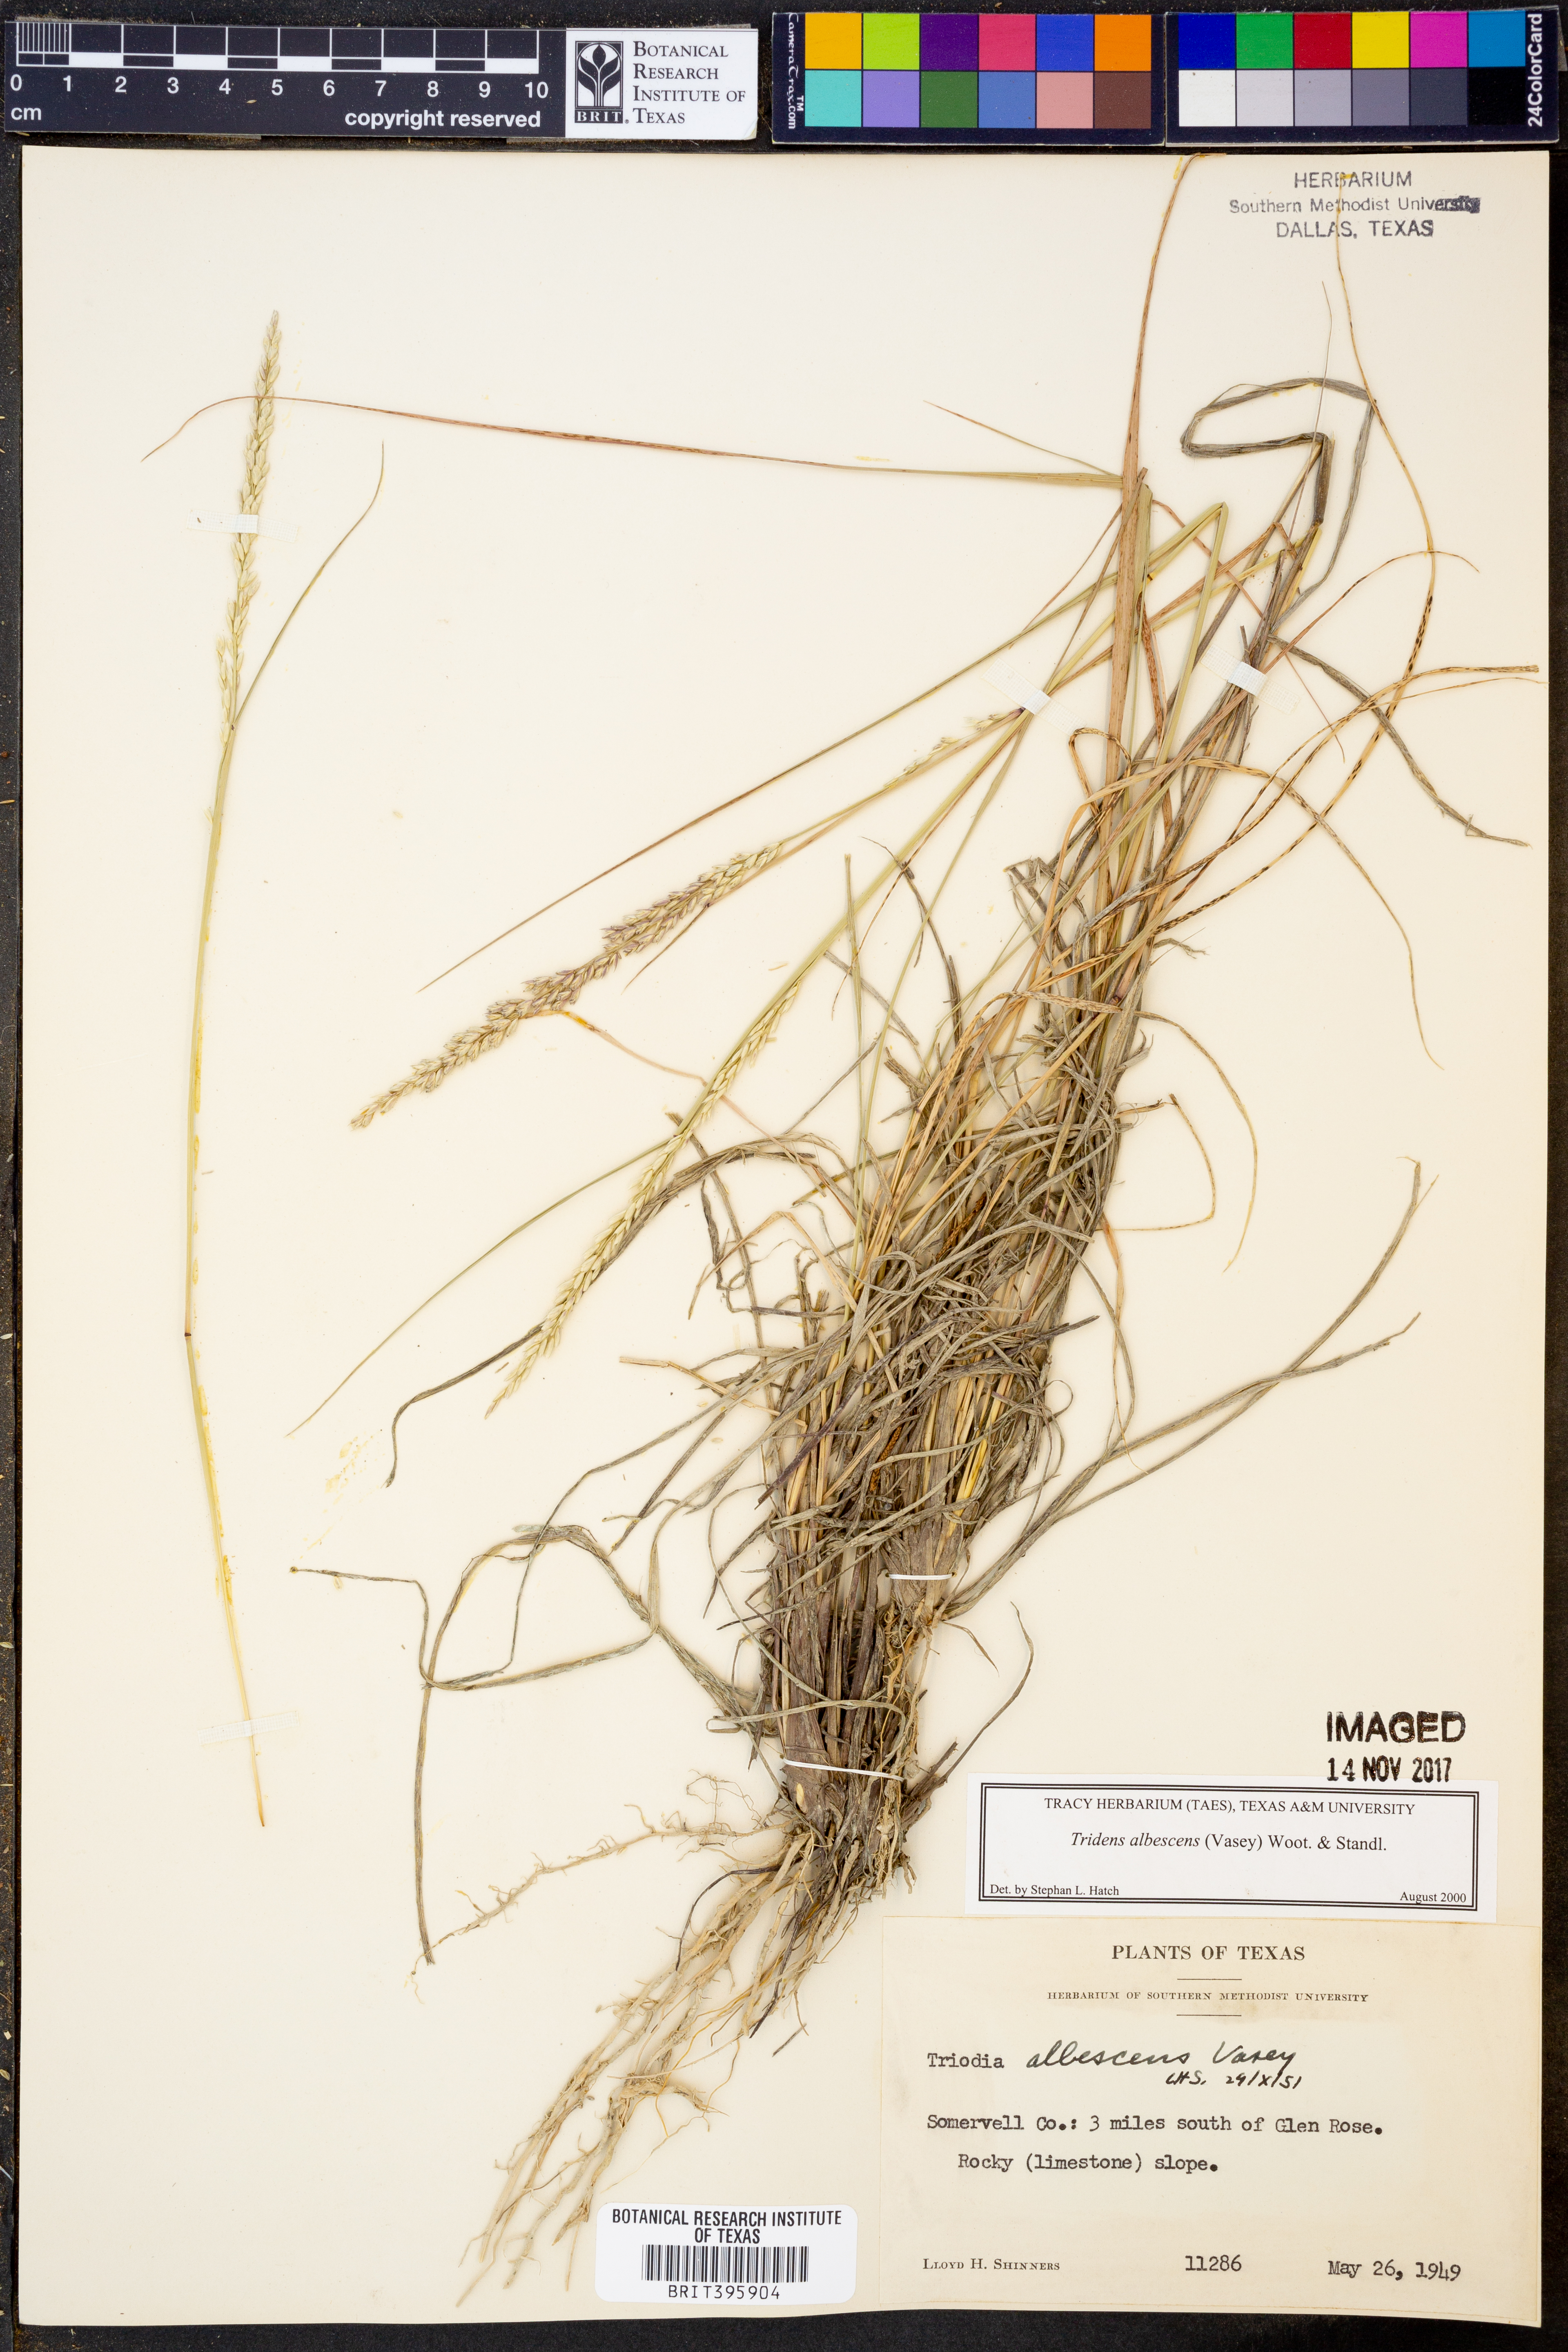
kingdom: Plantae
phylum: Tracheophyta
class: Liliopsida
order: Poales
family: Poaceae
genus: Tridens
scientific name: Tridens albescens
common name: White tridens
